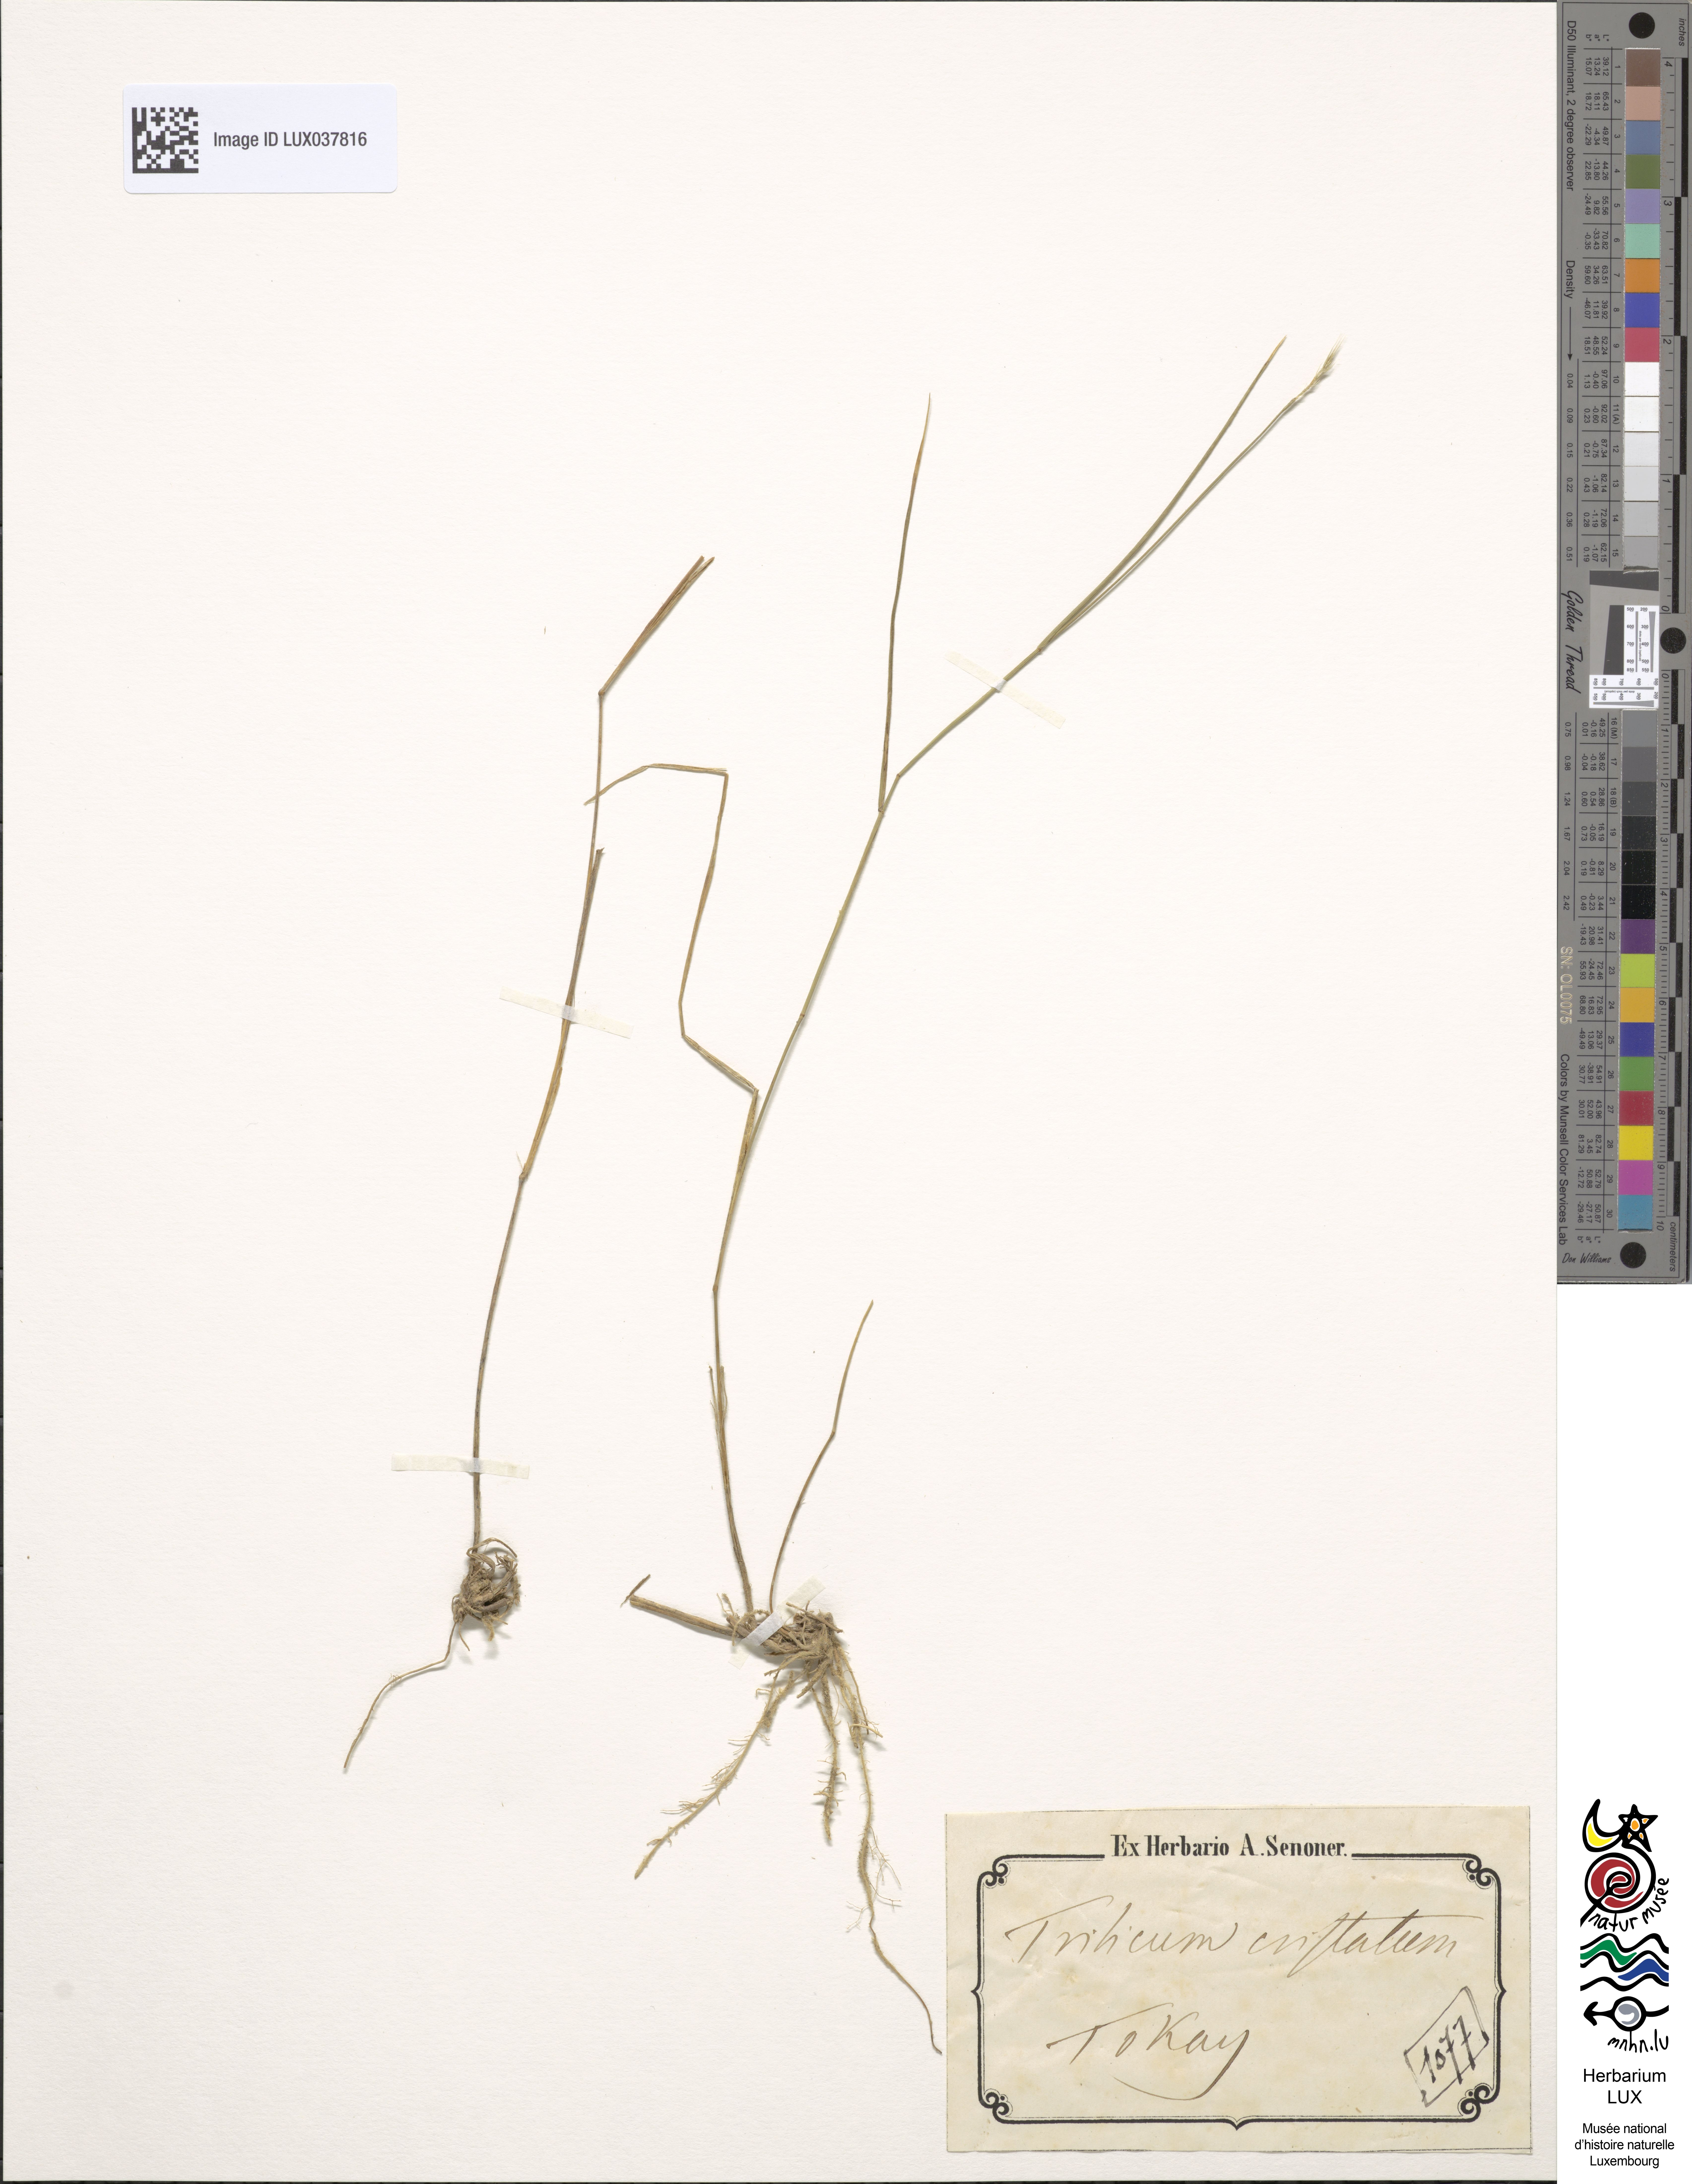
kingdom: Plantae
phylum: Tracheophyta
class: Liliopsida
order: Poales
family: Poaceae
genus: Agropyron
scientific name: Agropyron cristatum
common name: Crested wheatgrass
